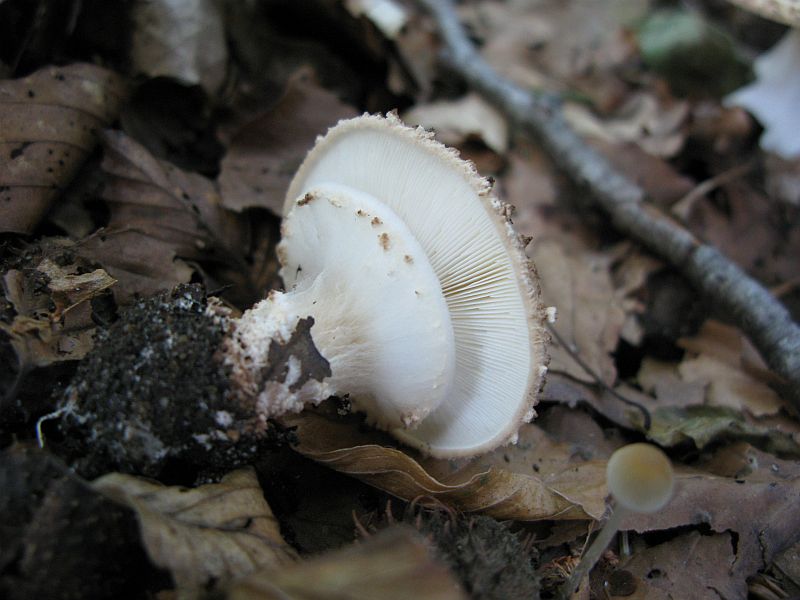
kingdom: Fungi
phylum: Basidiomycota
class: Agaricomycetes
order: Agaricales
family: Agaricaceae
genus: Echinoderma
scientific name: Echinoderma asperum
